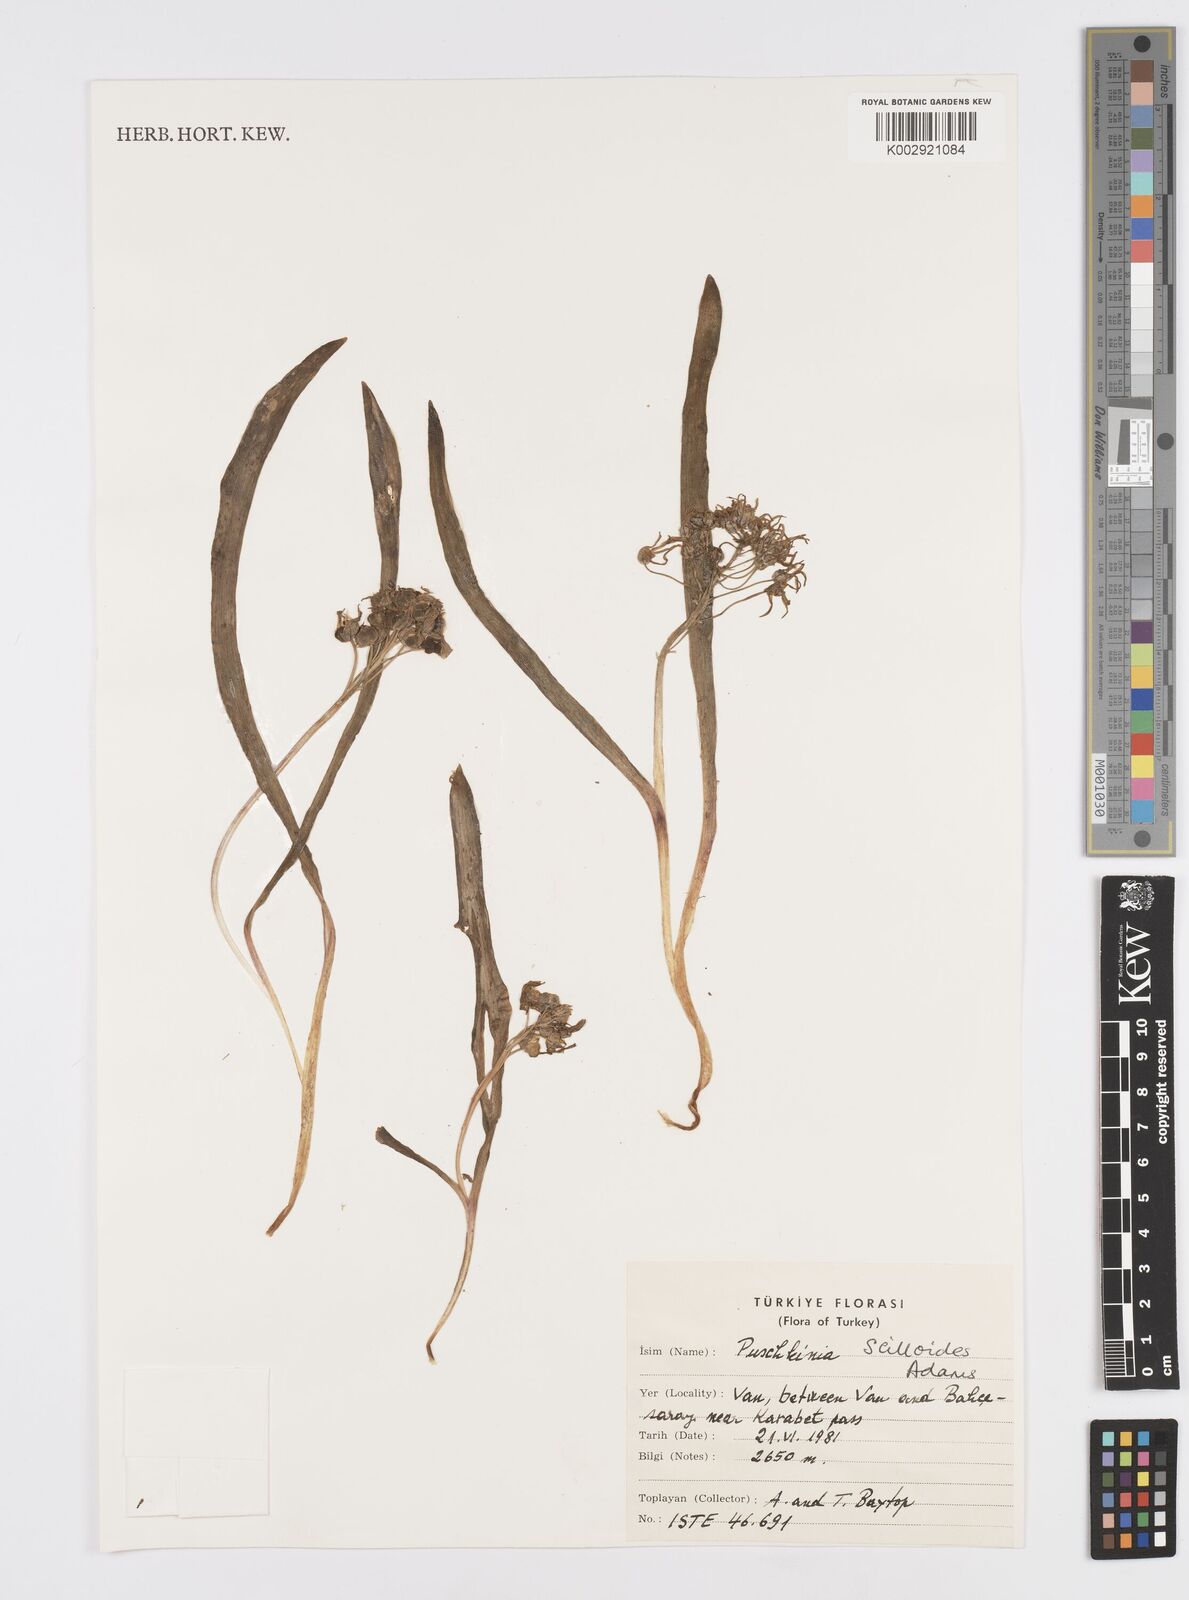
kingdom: Plantae
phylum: Tracheophyta
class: Liliopsida
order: Asparagales
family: Asparagaceae
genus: Puschkinia
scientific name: Puschkinia scilloides
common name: Striped squill
